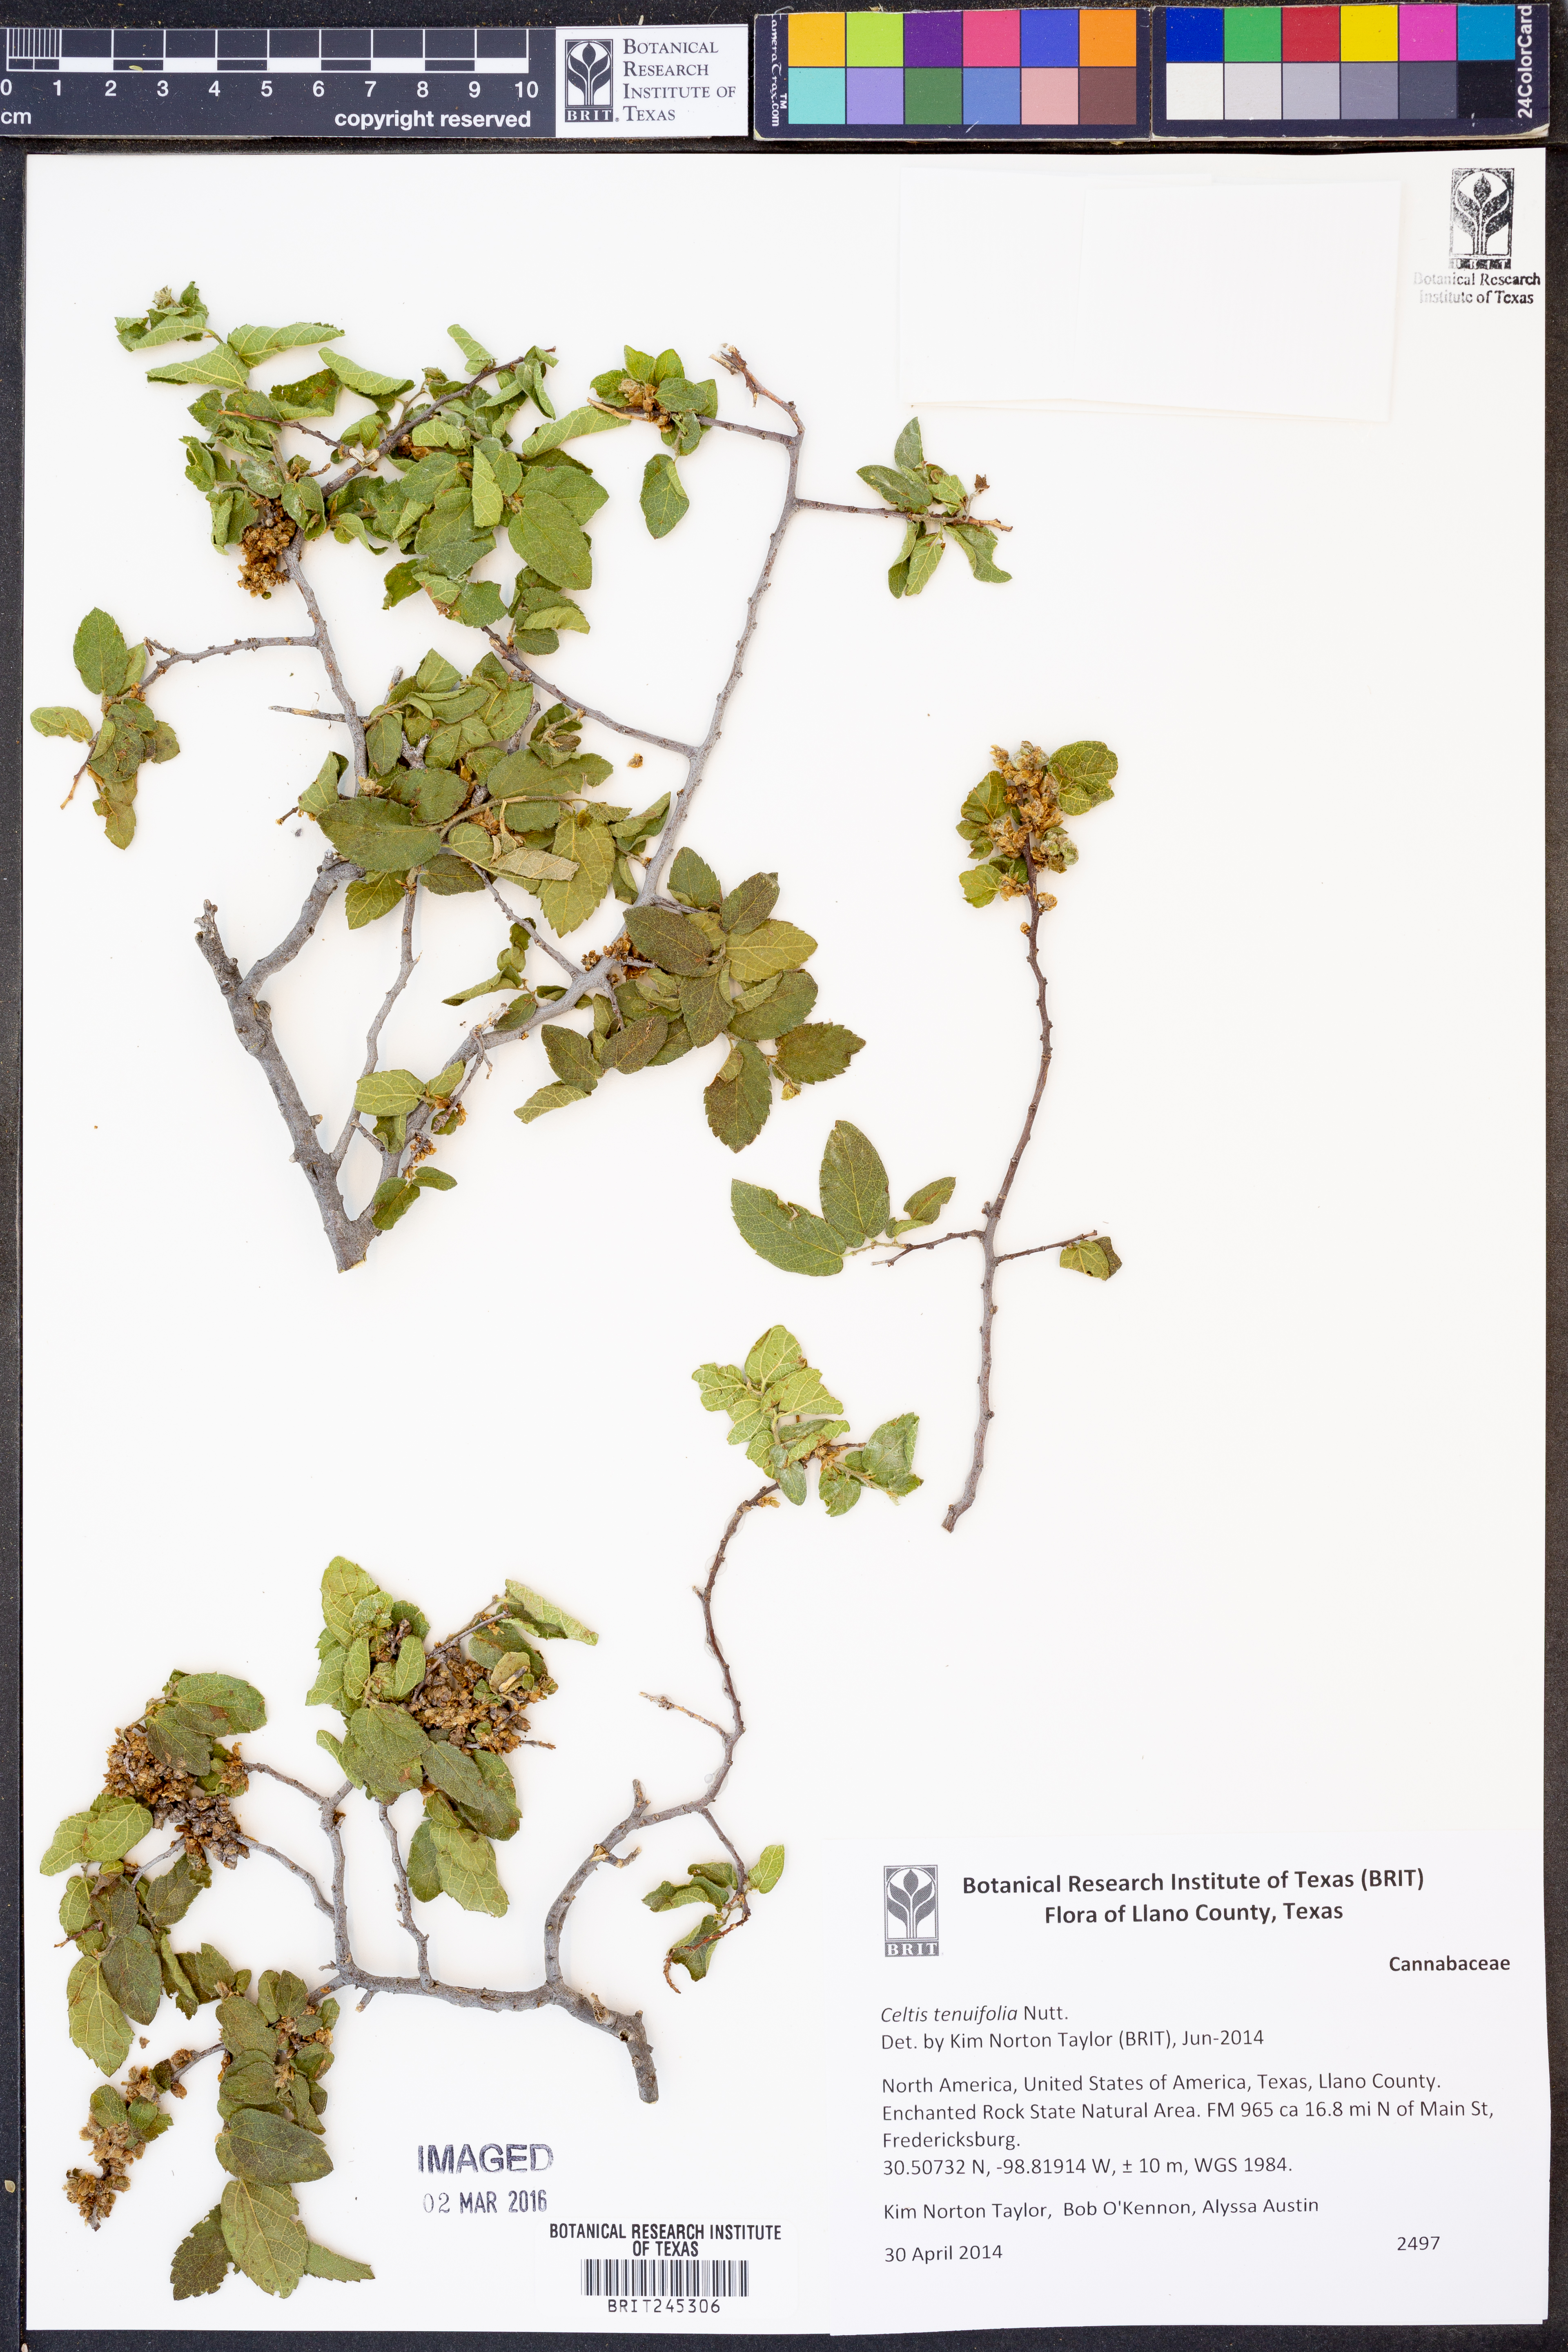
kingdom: Plantae
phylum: Tracheophyta
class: Magnoliopsida
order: Rosales
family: Cannabaceae
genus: Celtis
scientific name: Celtis tenuifolia
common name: Georgia hackberry
